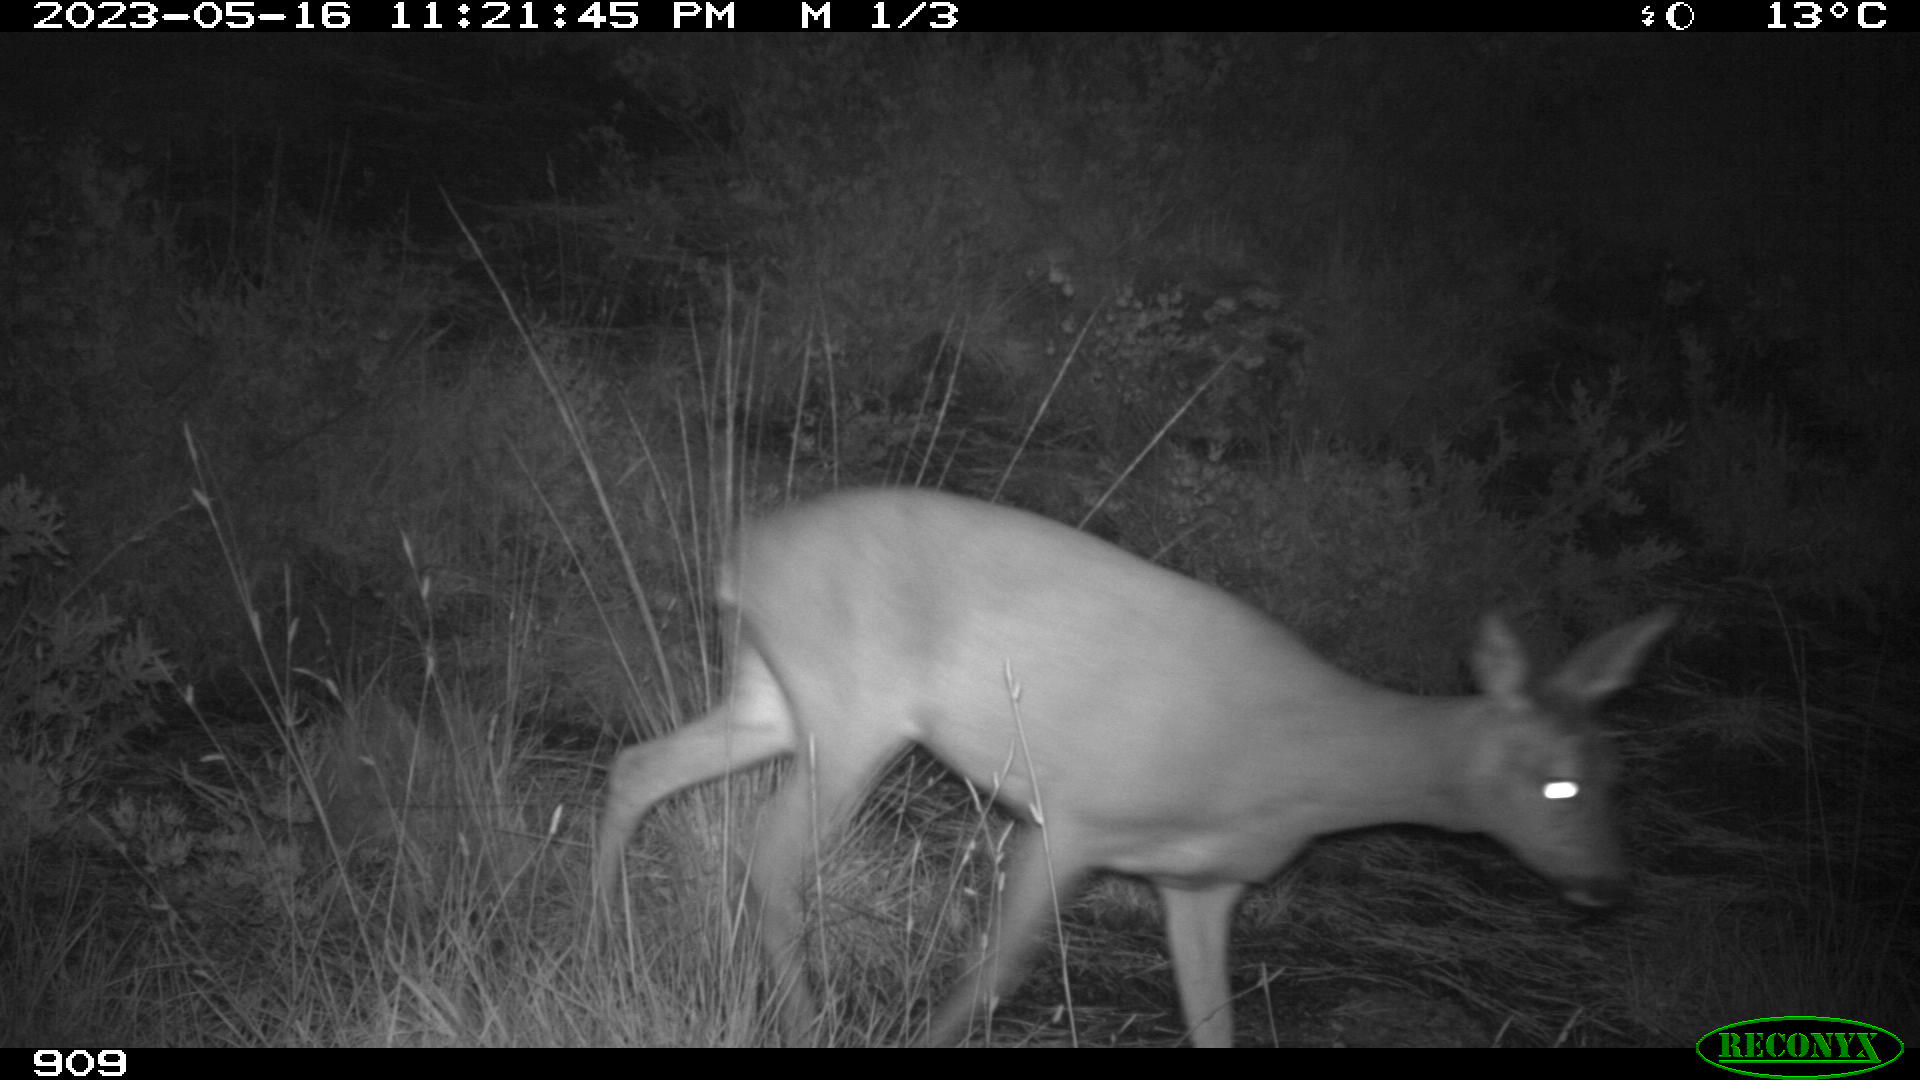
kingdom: Animalia
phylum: Chordata
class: Mammalia
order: Artiodactyla
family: Cervidae
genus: Capreolus
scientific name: Capreolus capreolus
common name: Western roe deer
